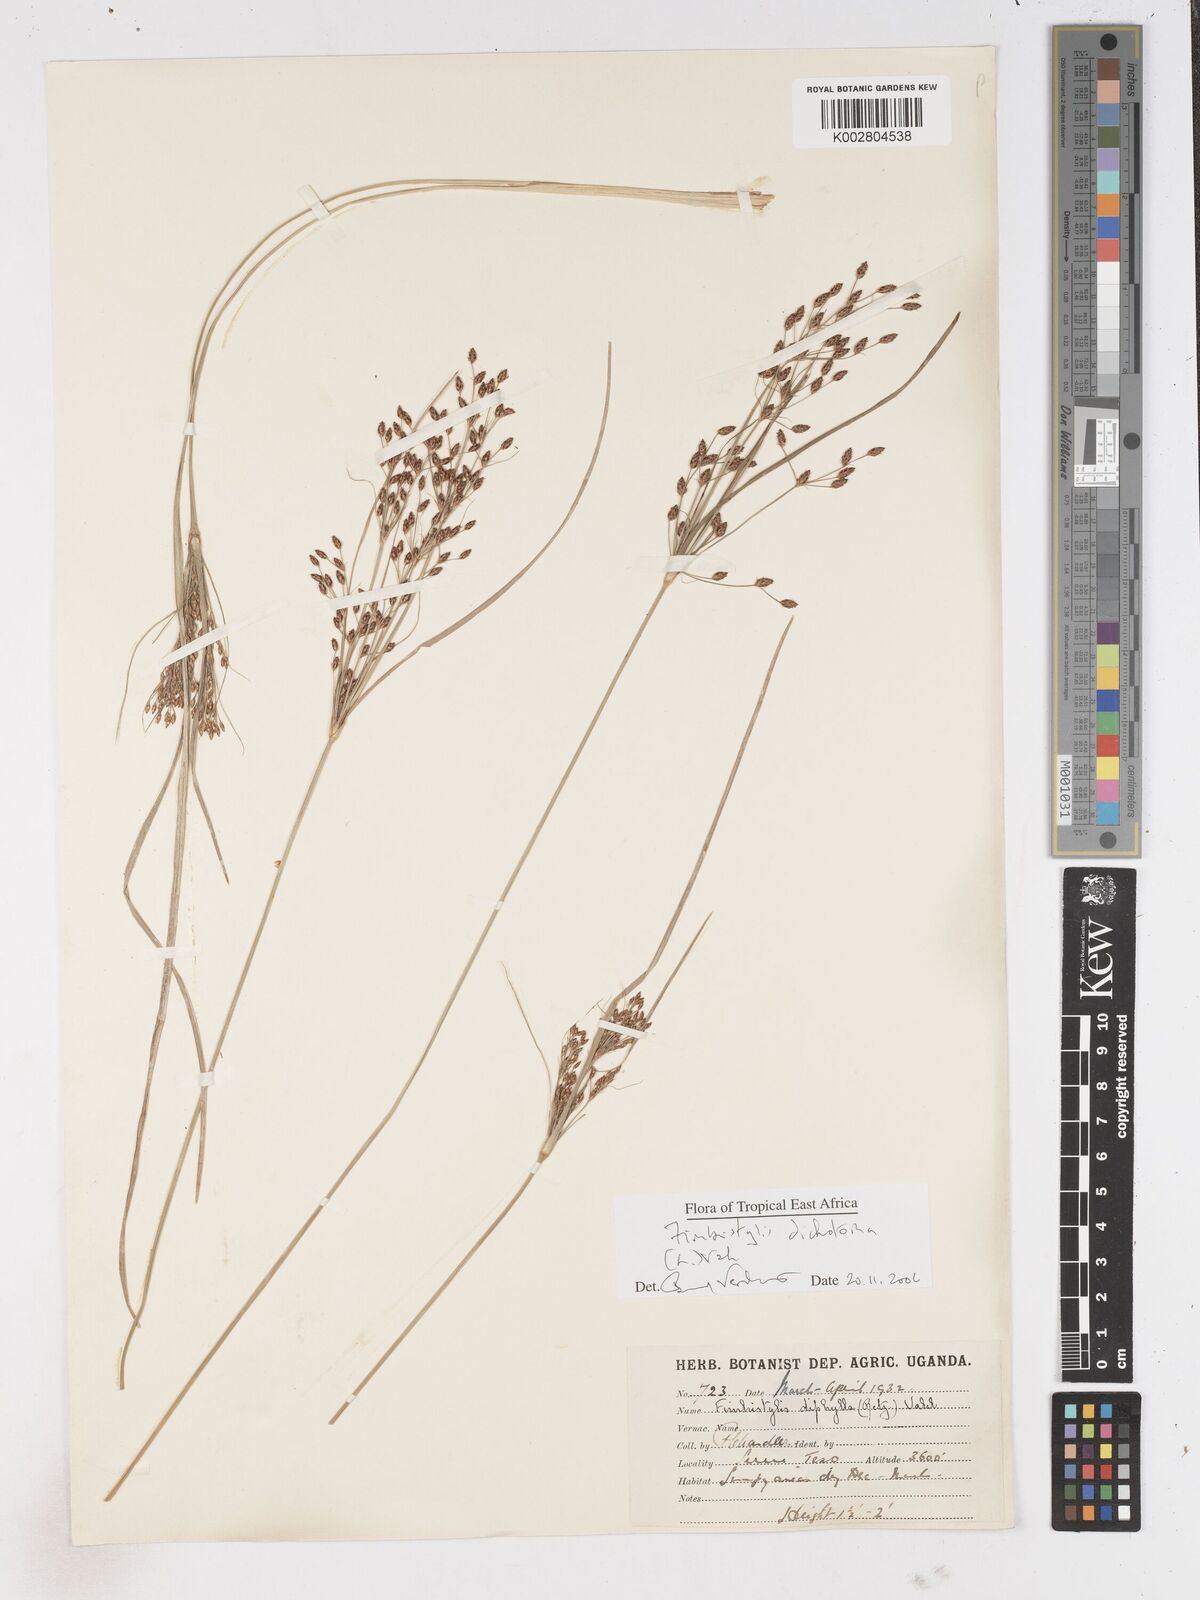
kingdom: Plantae
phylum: Tracheophyta
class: Liliopsida
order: Poales
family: Cyperaceae
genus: Fimbristylis
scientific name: Fimbristylis dichotoma
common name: Forked fimbry
